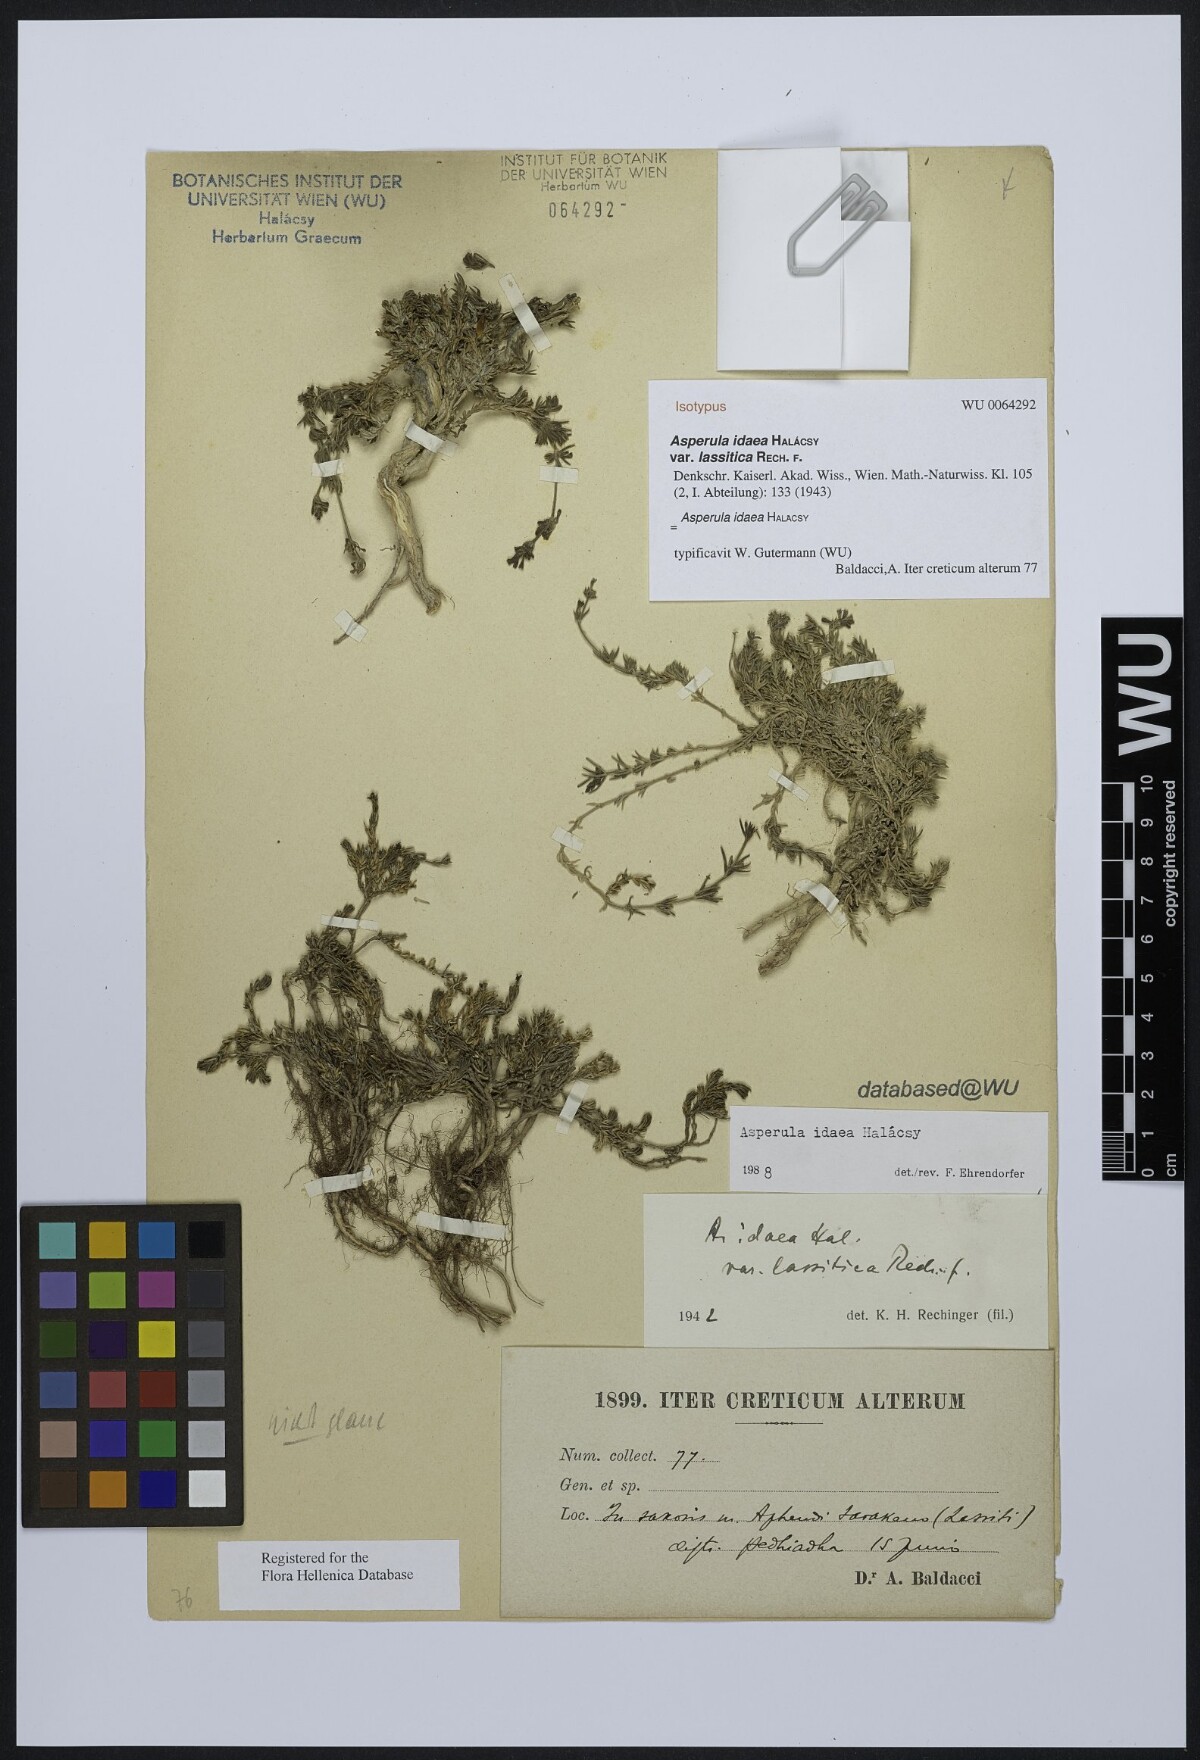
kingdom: Plantae
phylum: Tracheophyta
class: Magnoliopsida
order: Gentianales
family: Rubiaceae
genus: Cynanchica
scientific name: Cynanchica idaea
